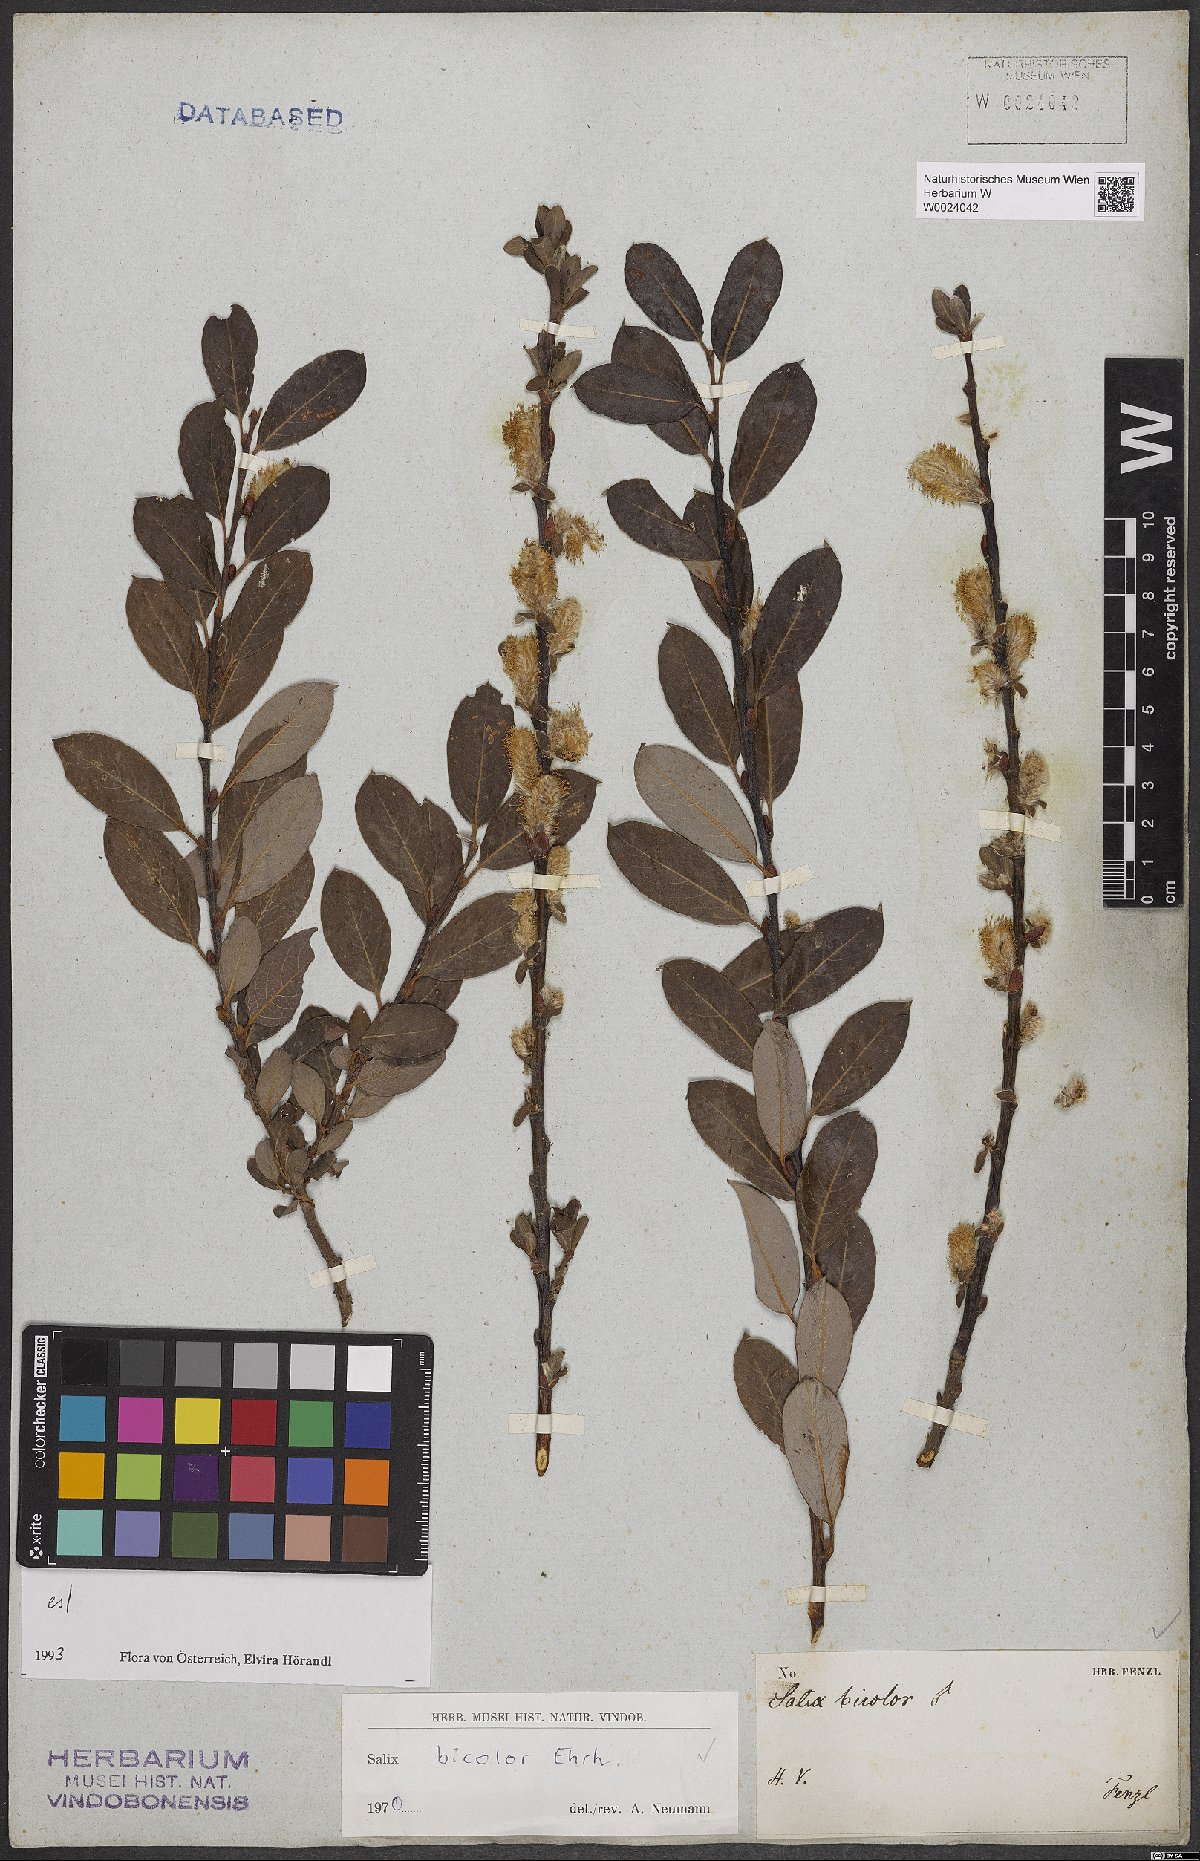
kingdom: Plantae
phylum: Tracheophyta
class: Magnoliopsida
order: Malpighiales
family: Salicaceae
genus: Salix
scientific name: Salix bicolor
